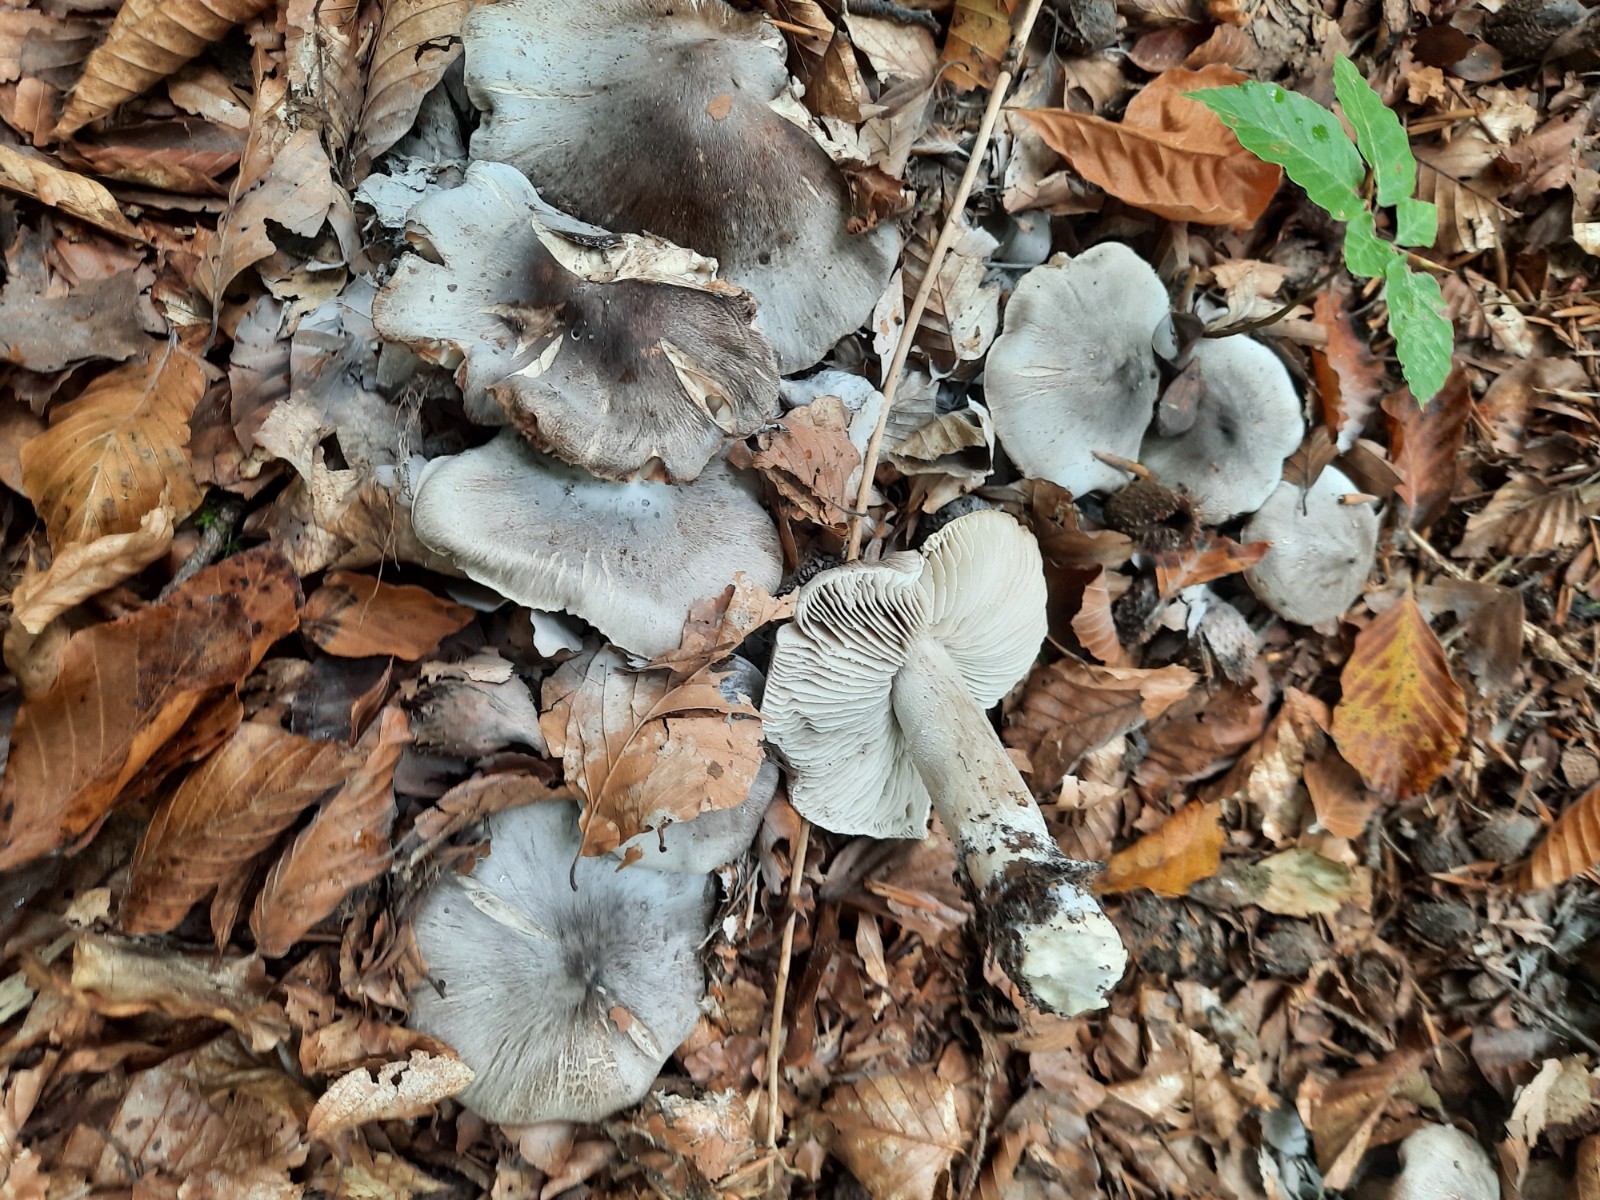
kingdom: Fungi
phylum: Basidiomycota
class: Agaricomycetes
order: Agaricales
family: Tricholomataceae
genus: Tricholoma
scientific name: Tricholoma sciodes
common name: stribet ridderhat
